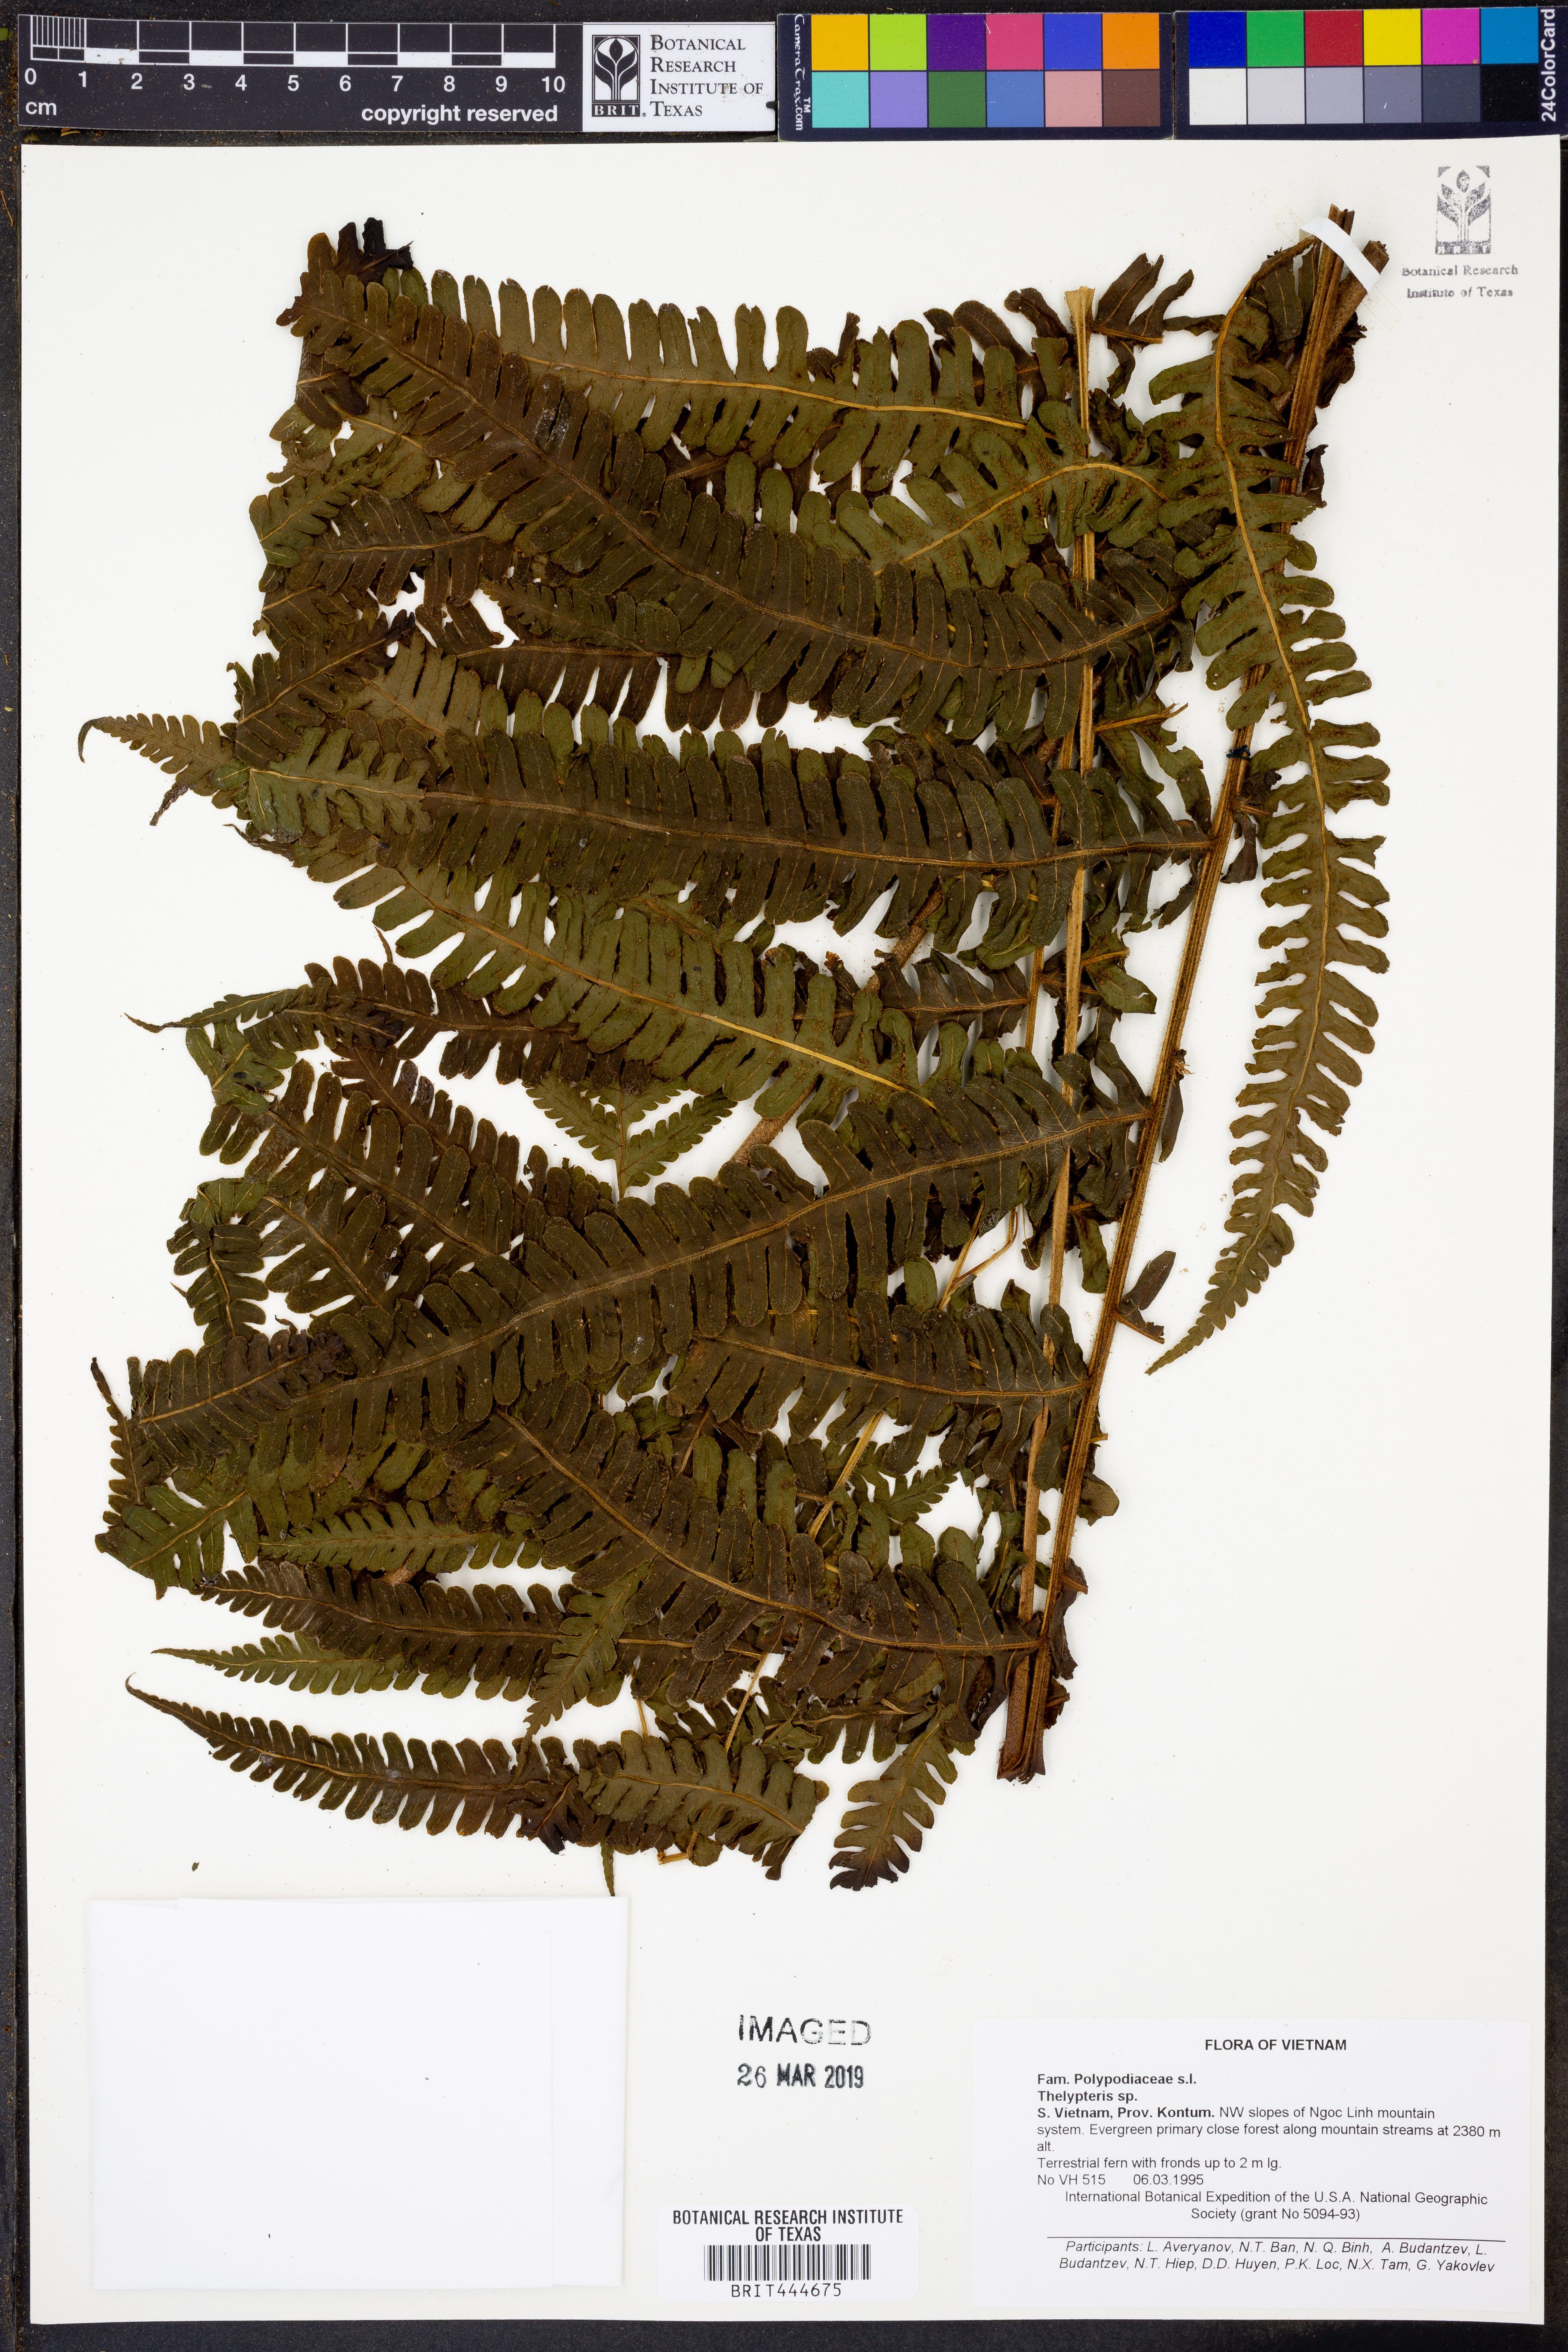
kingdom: Plantae
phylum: Tracheophyta
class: Polypodiopsida
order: Polypodiales
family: Thelypteridaceae
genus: Thelypteris
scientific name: Thelypteris
